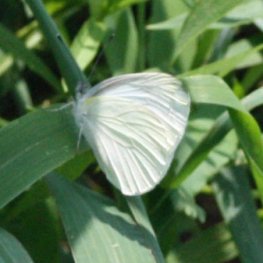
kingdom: Animalia
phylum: Arthropoda
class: Insecta
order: Lepidoptera
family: Pieridae
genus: Pieris
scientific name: Pieris oleracea
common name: Mustard White
